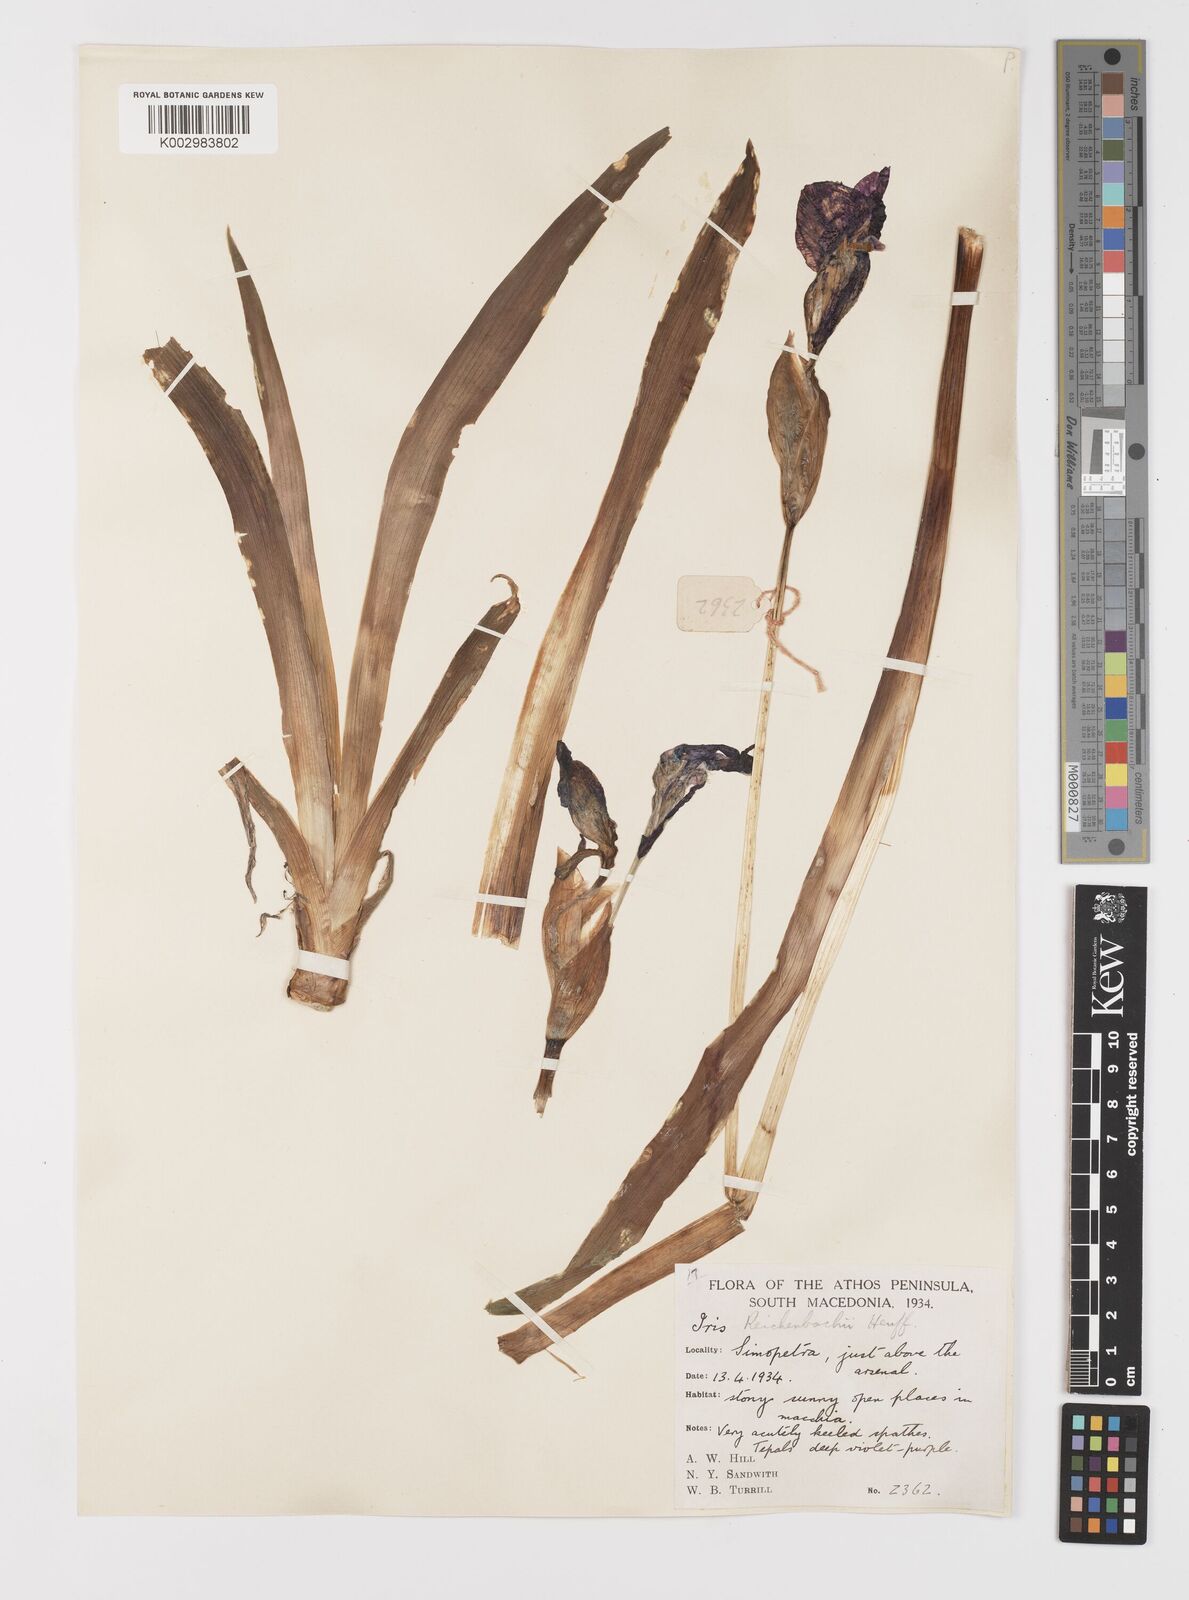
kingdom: Plantae
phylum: Tracheophyta
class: Liliopsida
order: Asparagales
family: Iridaceae
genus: Iris
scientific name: Iris reichenbachii
